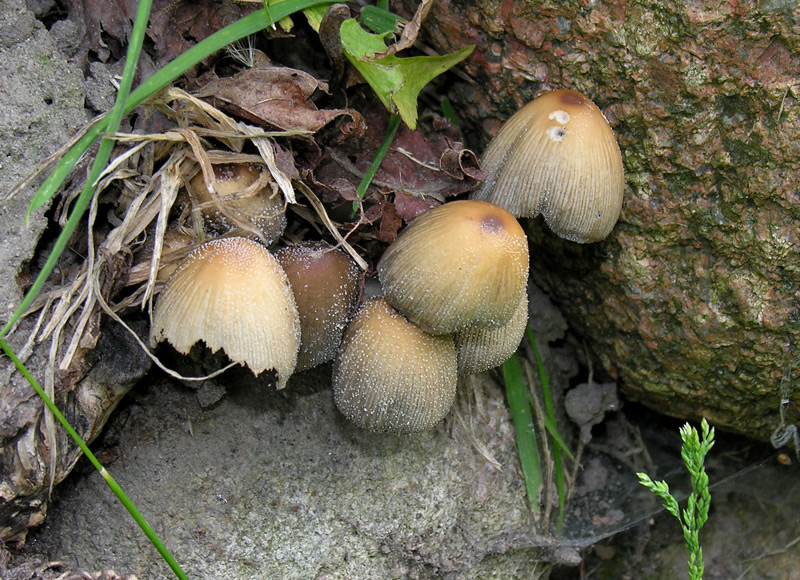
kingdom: Fungi
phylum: Basidiomycota
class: Agaricomycetes
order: Agaricales
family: Psathyrellaceae
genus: Coprinellus
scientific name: Coprinellus micaceus
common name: glimmer-blækhat
